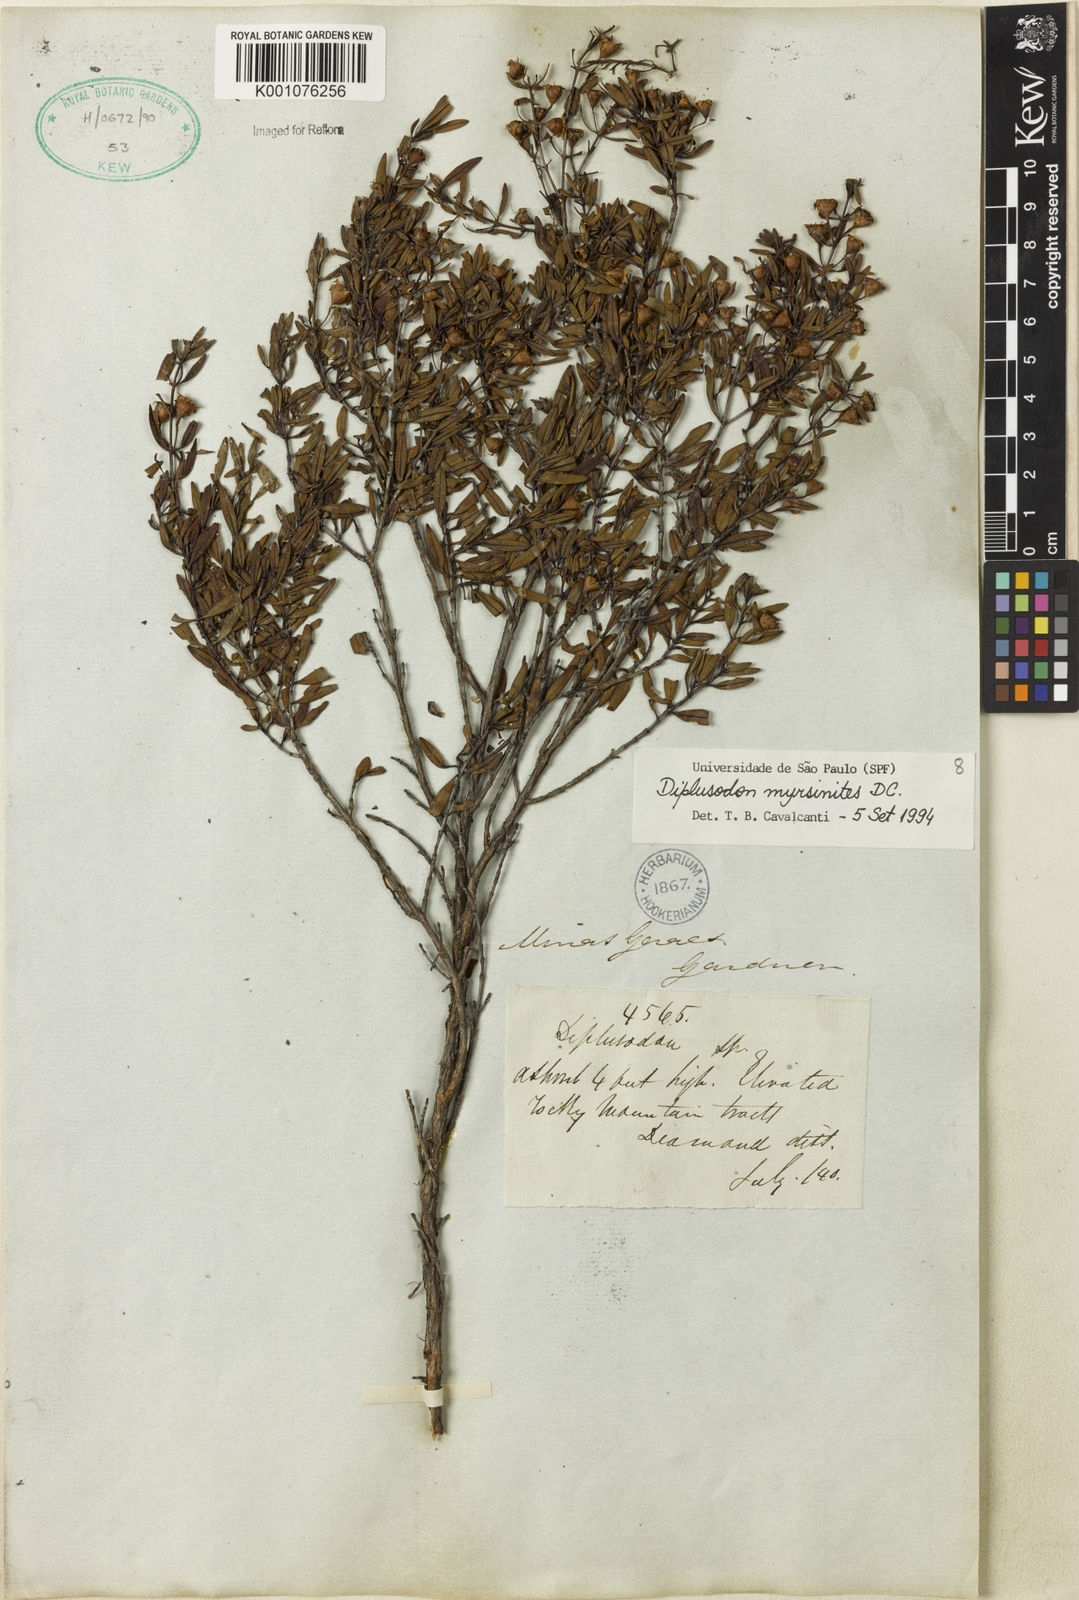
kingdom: Plantae
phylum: Tracheophyta
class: Magnoliopsida
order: Myrtales
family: Lythraceae
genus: Diplusodon
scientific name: Diplusodon myrsinites
